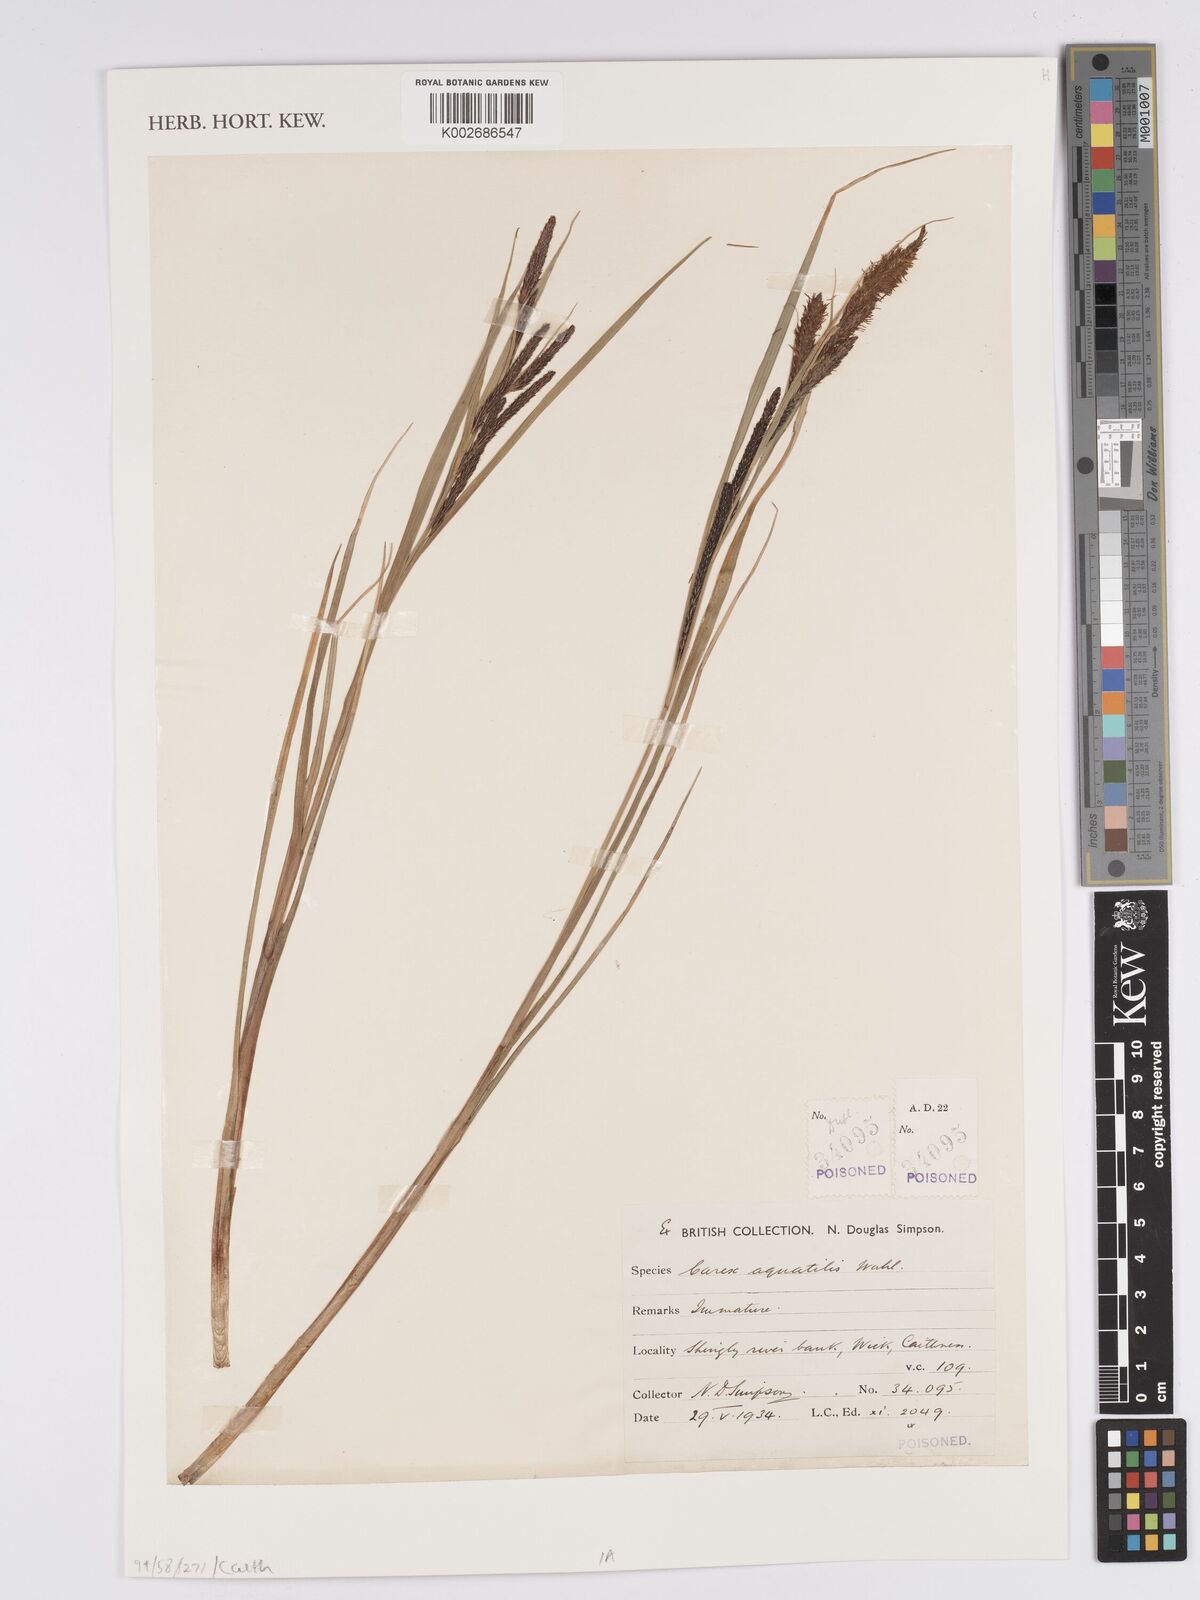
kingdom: Plantae
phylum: Tracheophyta
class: Liliopsida
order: Poales
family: Cyperaceae
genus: Carex
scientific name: Carex aquatilis
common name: Water sedge
